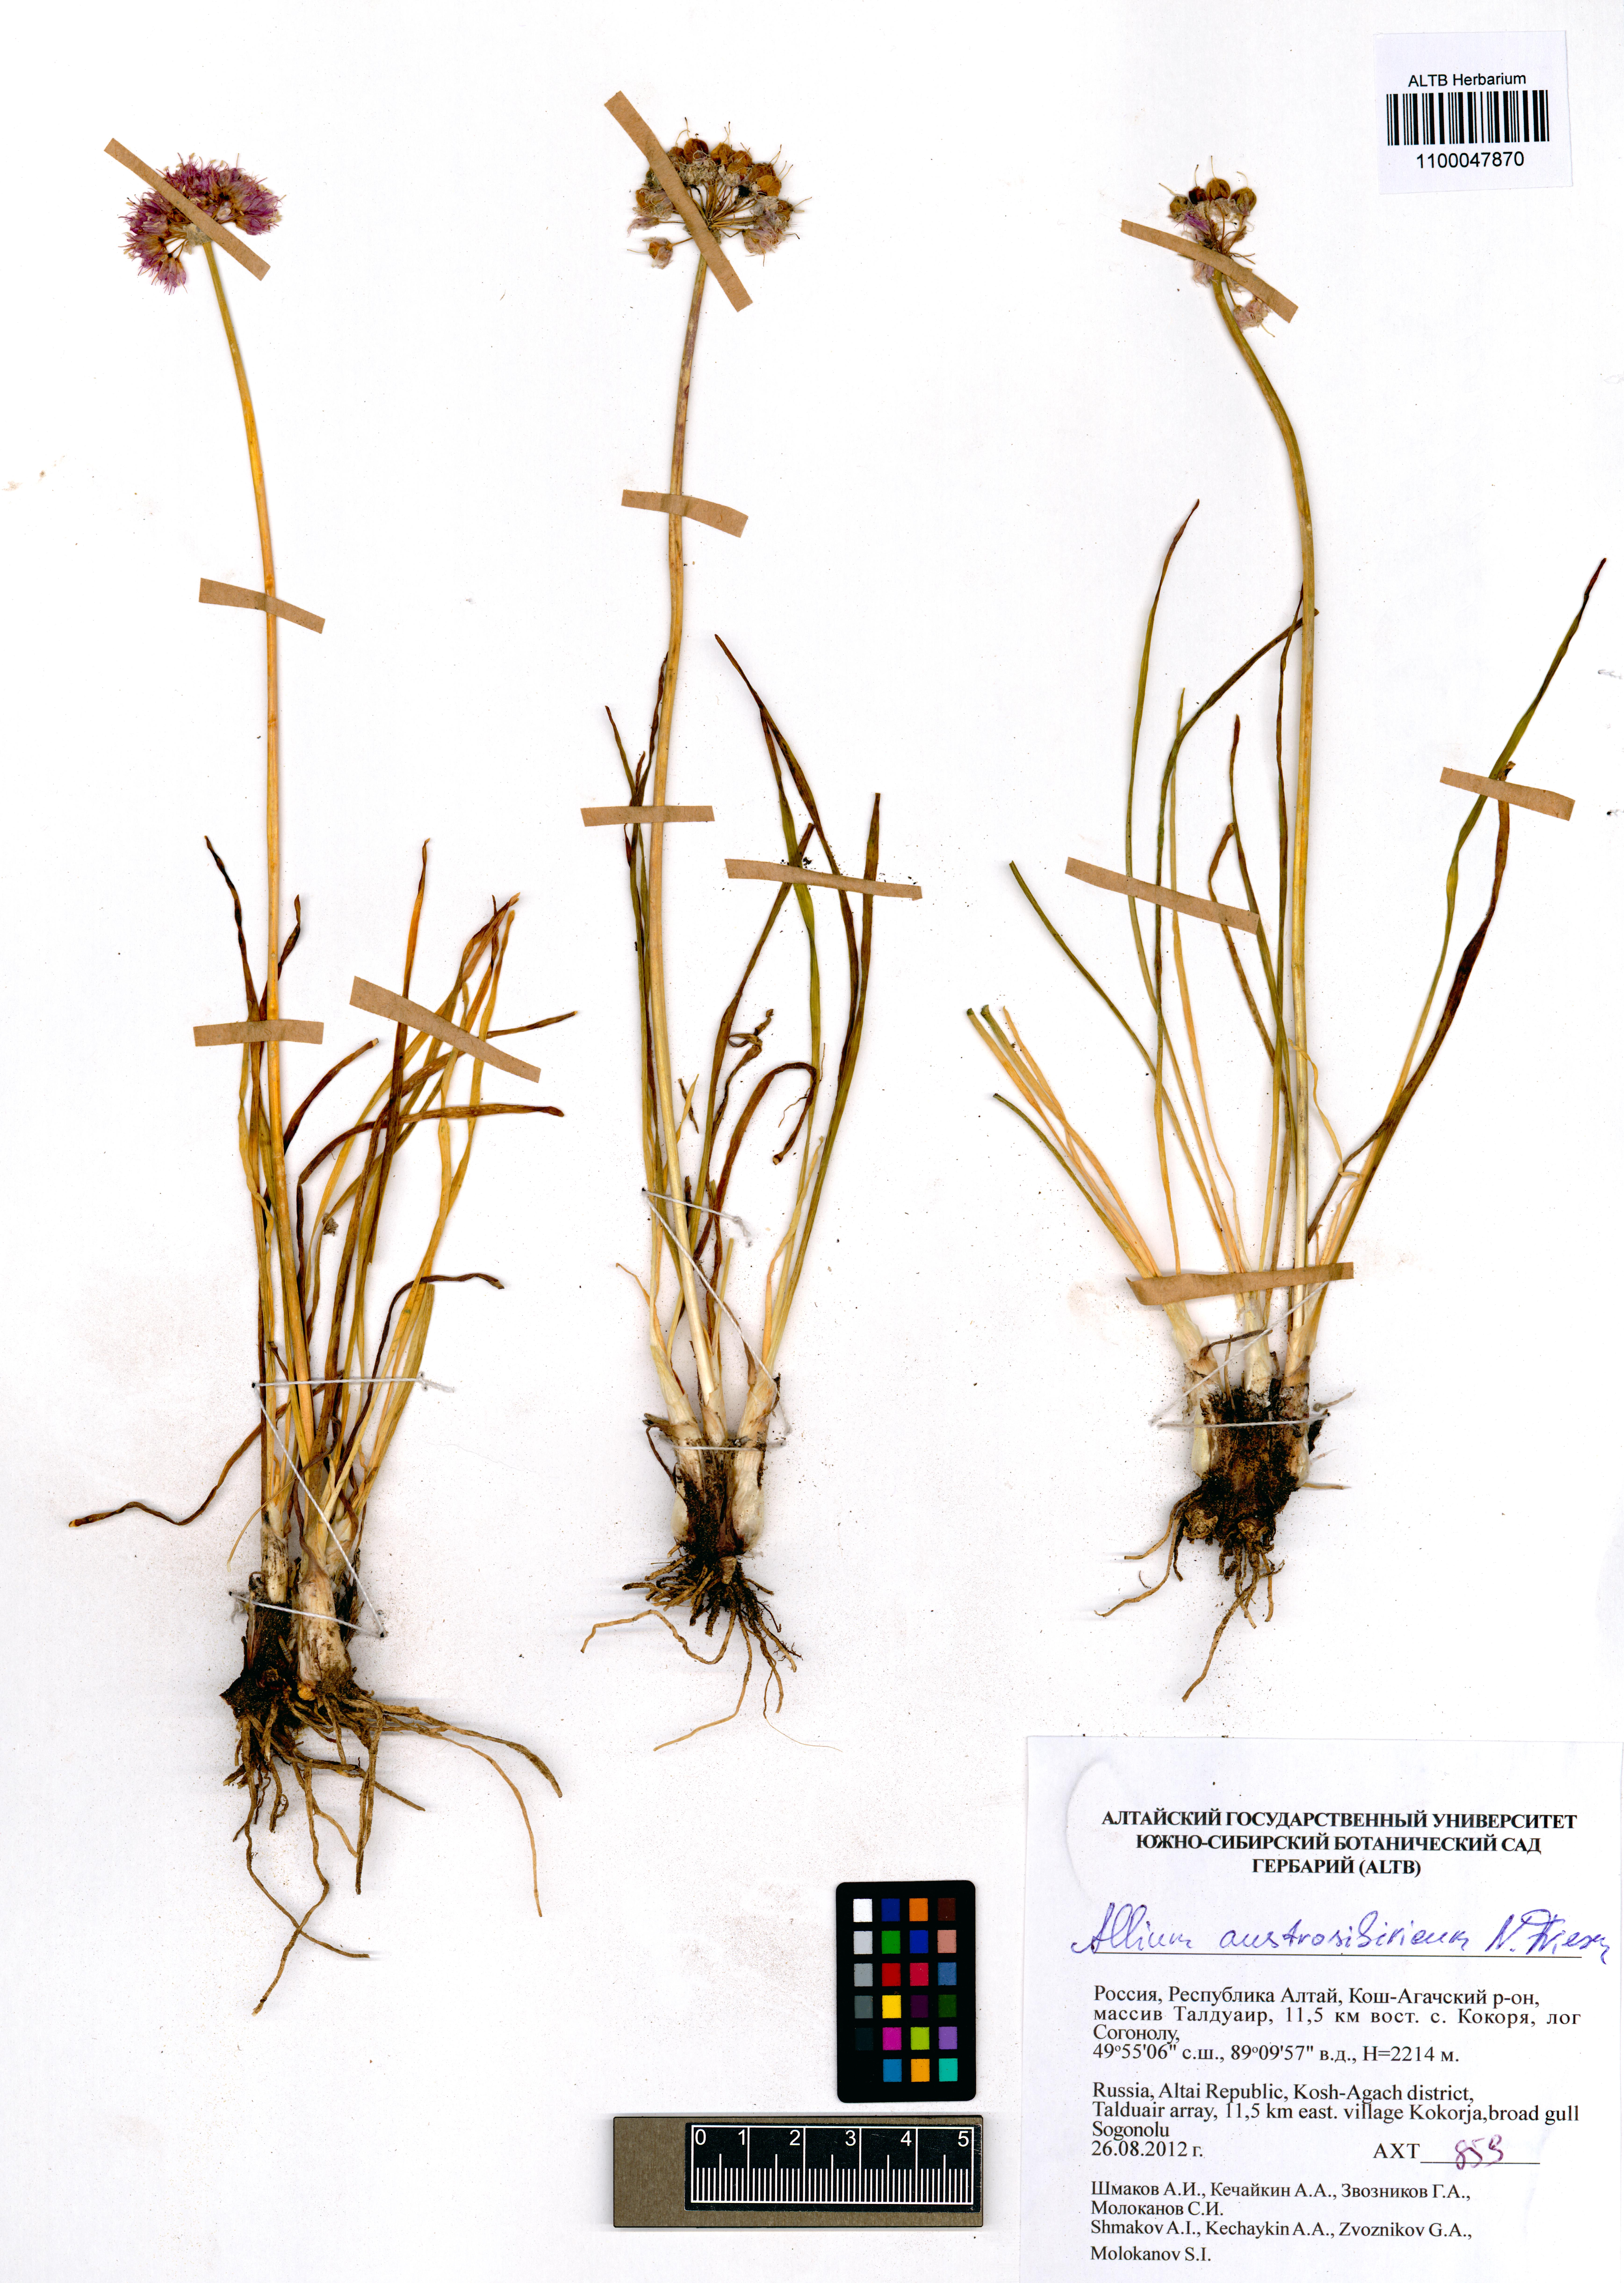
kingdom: Plantae
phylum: Tracheophyta
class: Liliopsida
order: Asparagales
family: Amaryllidaceae
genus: Allium
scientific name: Allium austrosibiricum
